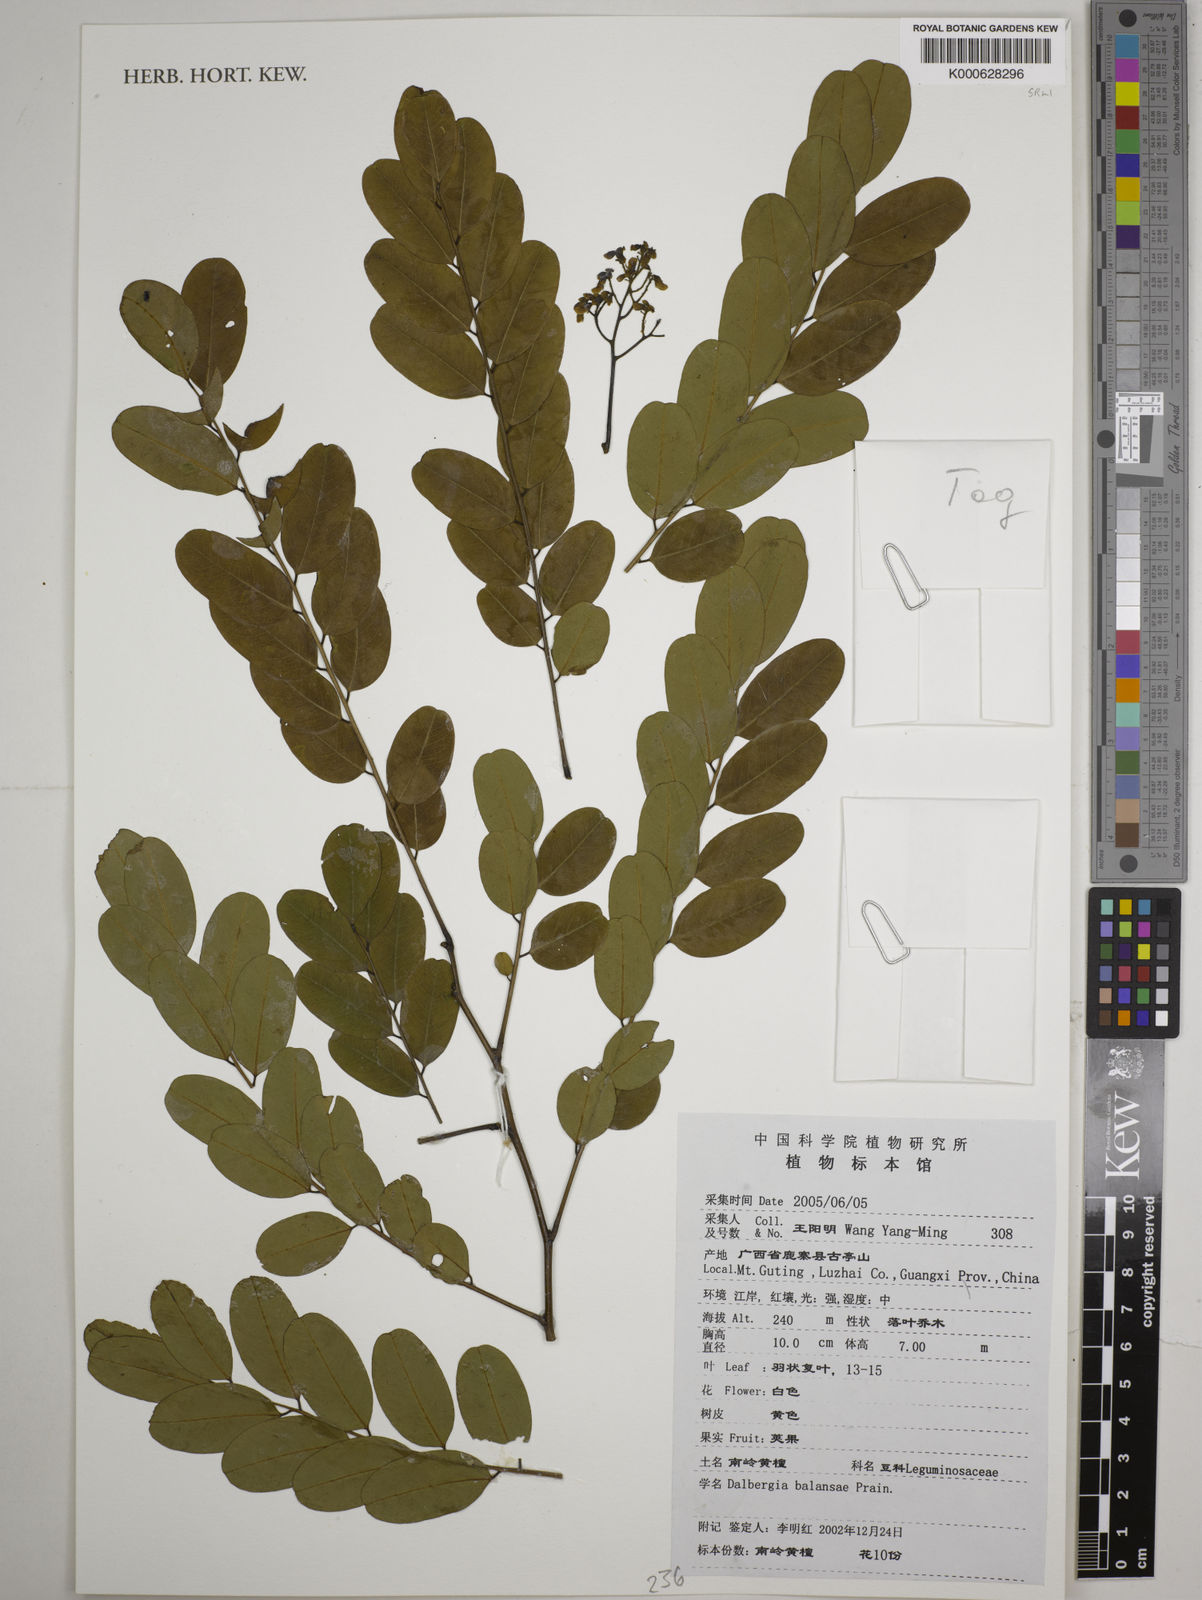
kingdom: Plantae
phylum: Tracheophyta
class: Magnoliopsida
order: Fabales
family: Fabaceae
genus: Dalbergia
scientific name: Dalbergia assamica
